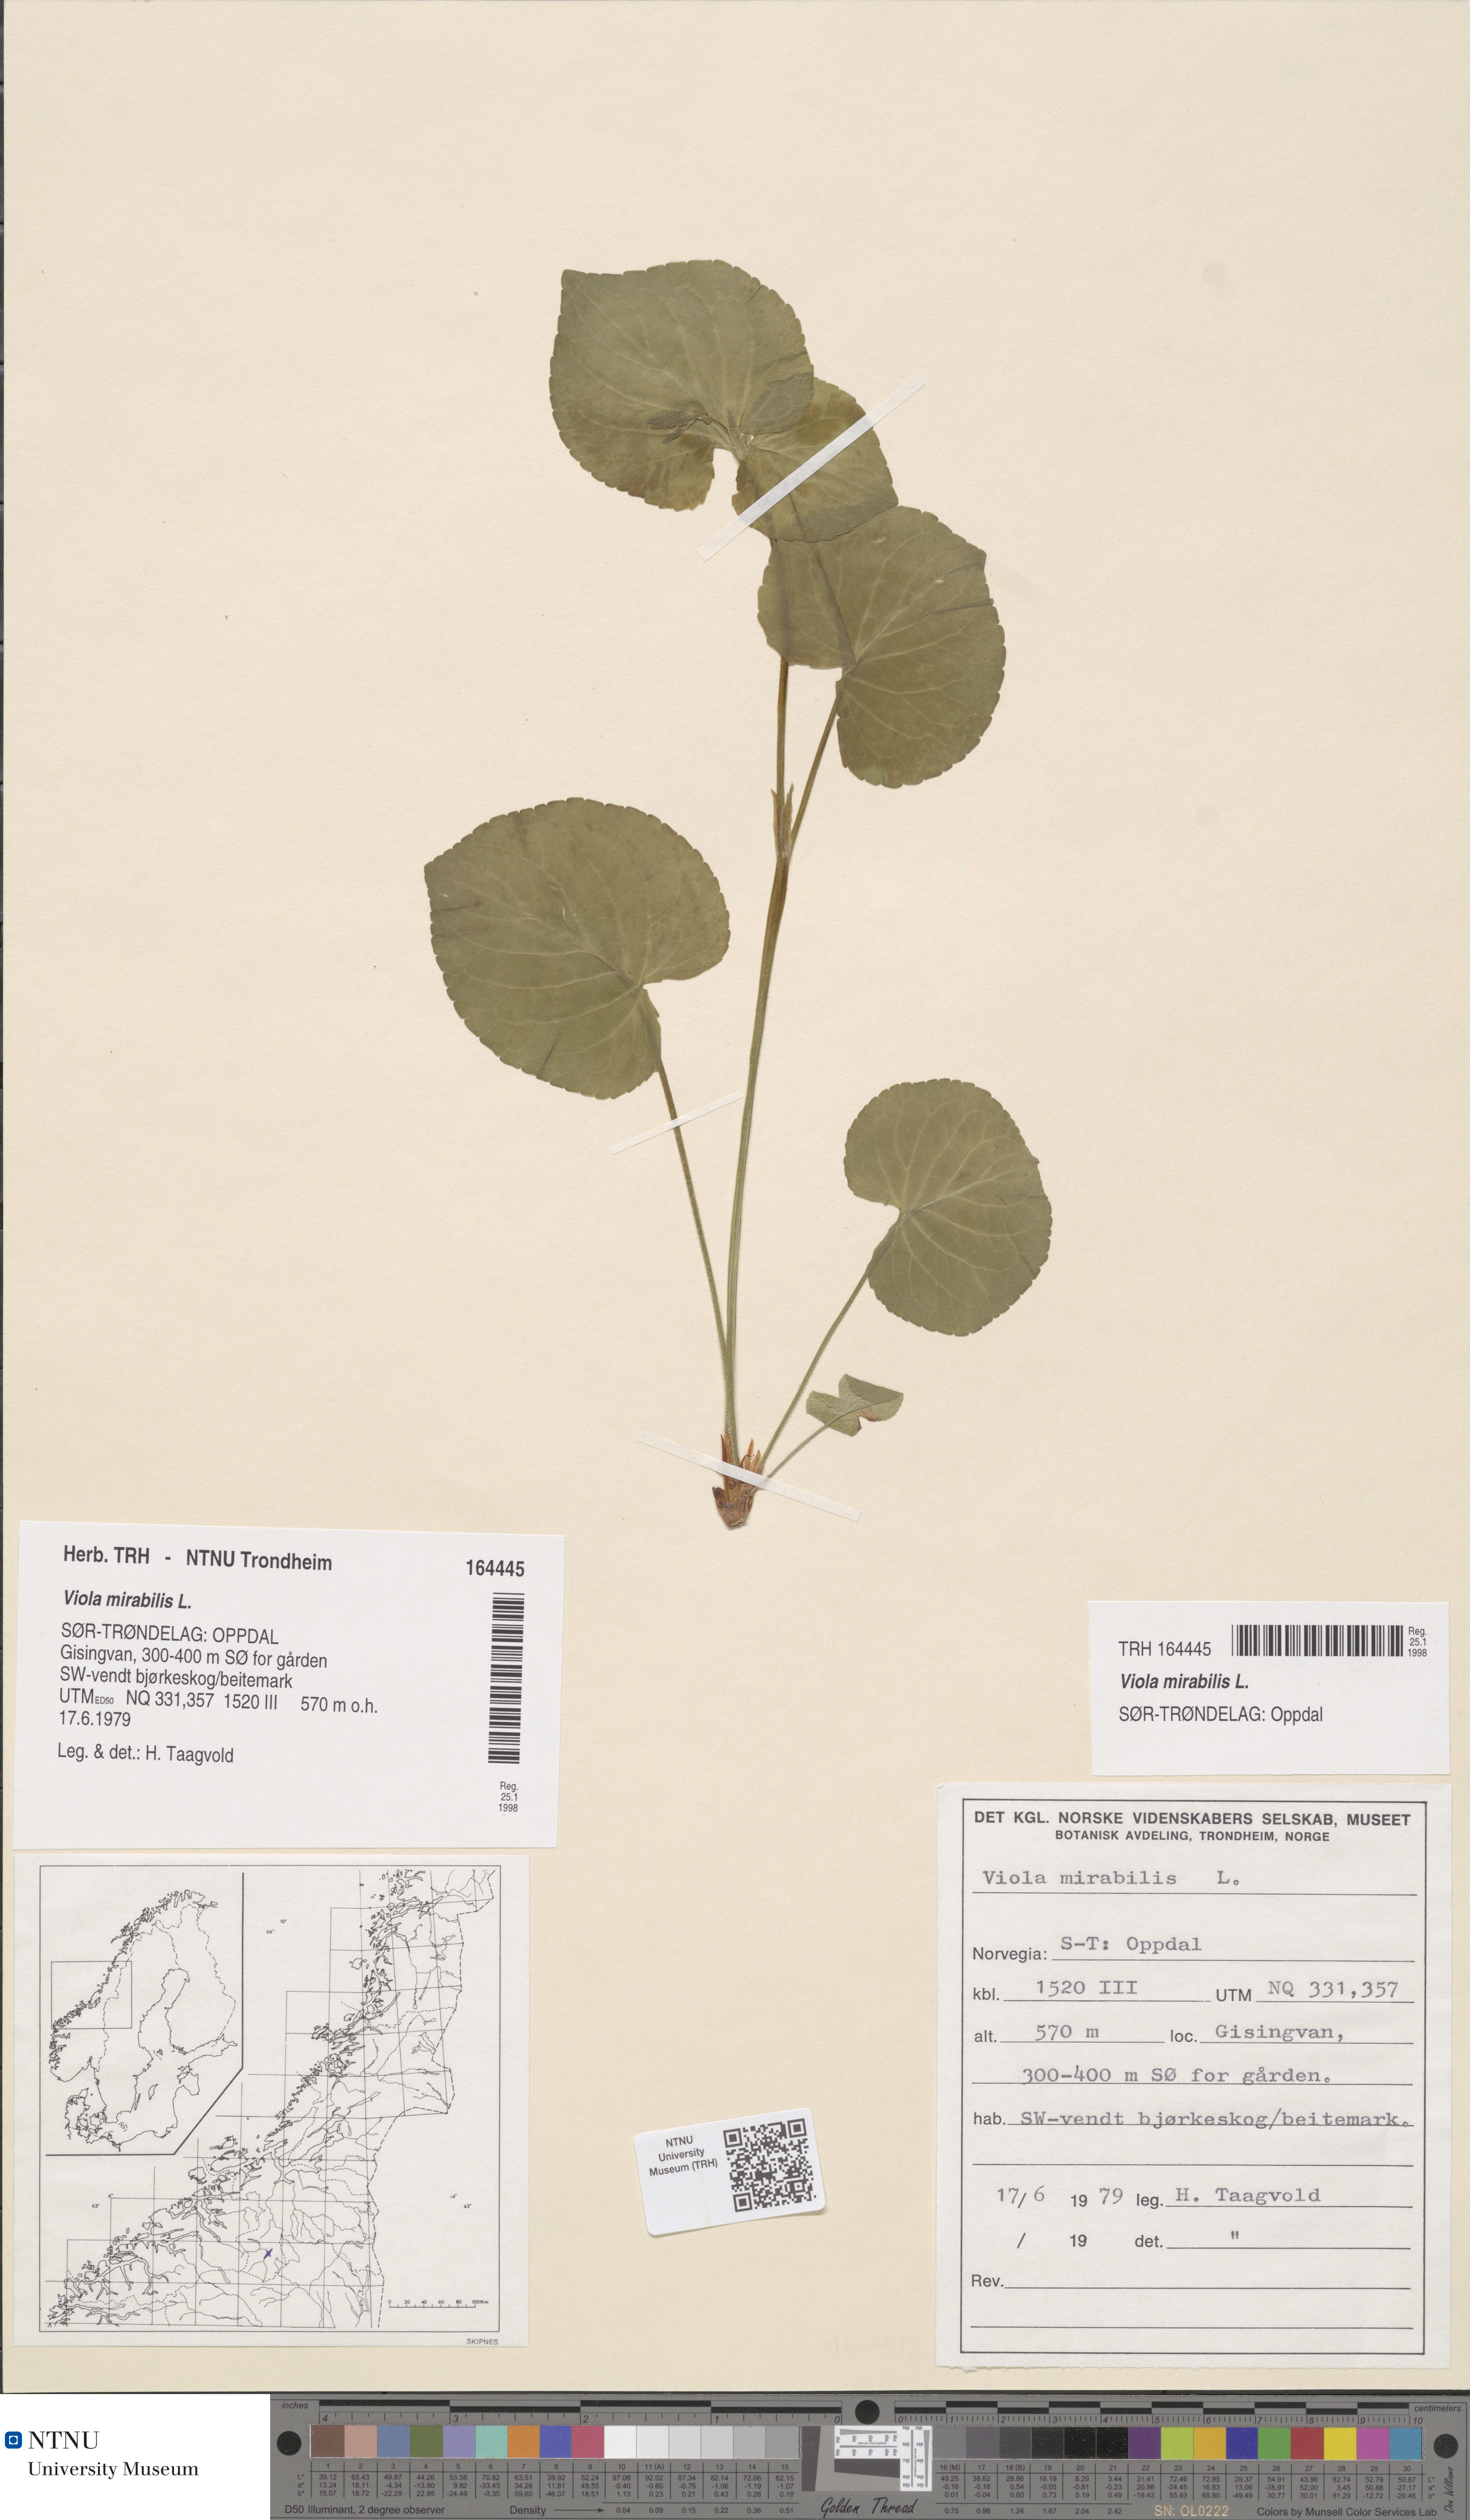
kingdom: Plantae
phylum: Tracheophyta
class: Magnoliopsida
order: Malpighiales
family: Violaceae
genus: Viola
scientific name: Viola mirabilis
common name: Wonder violet
